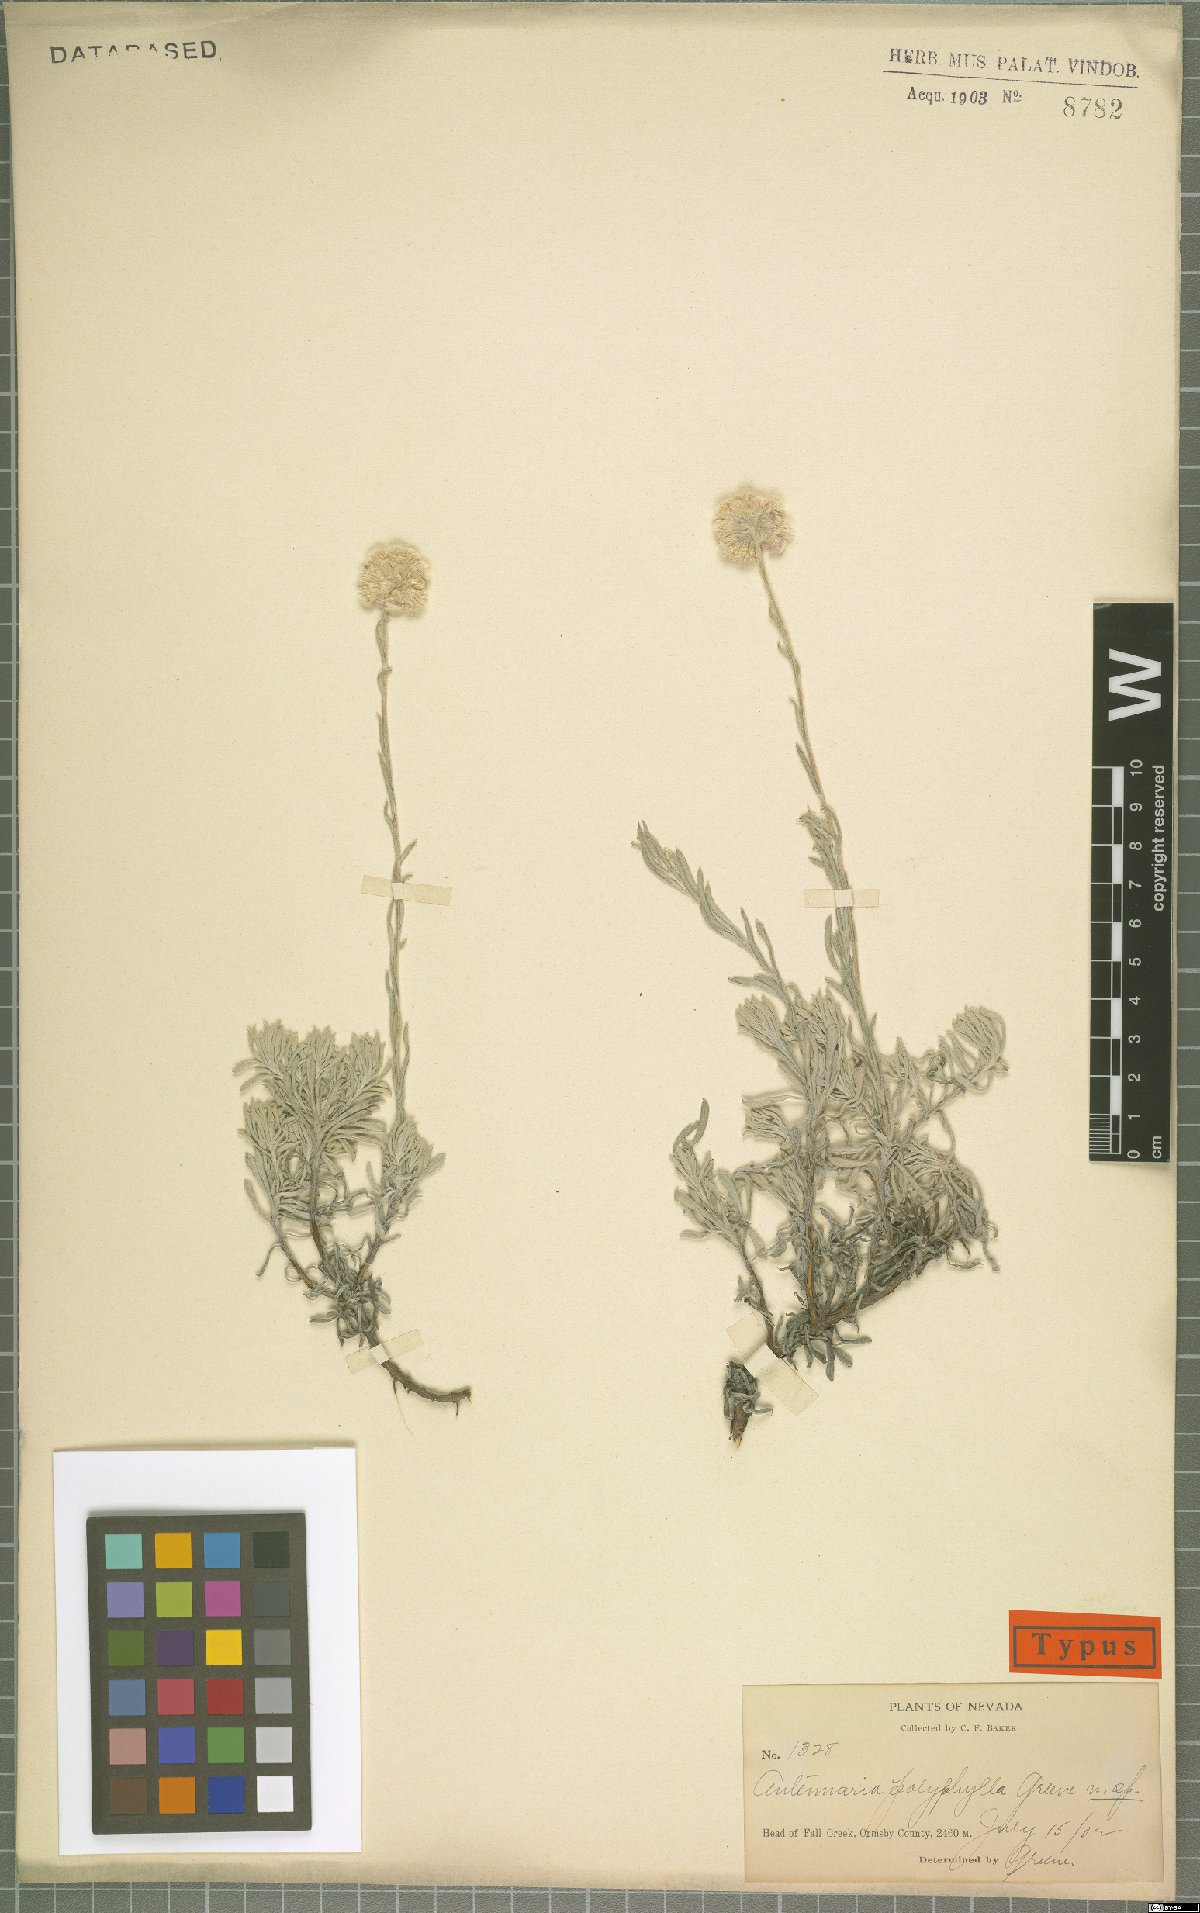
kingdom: Plantae
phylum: Tracheophyta
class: Magnoliopsida
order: Asterales
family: Asteraceae
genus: Antennaria
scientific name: Antennaria rosea
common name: Rosy pussytoes
